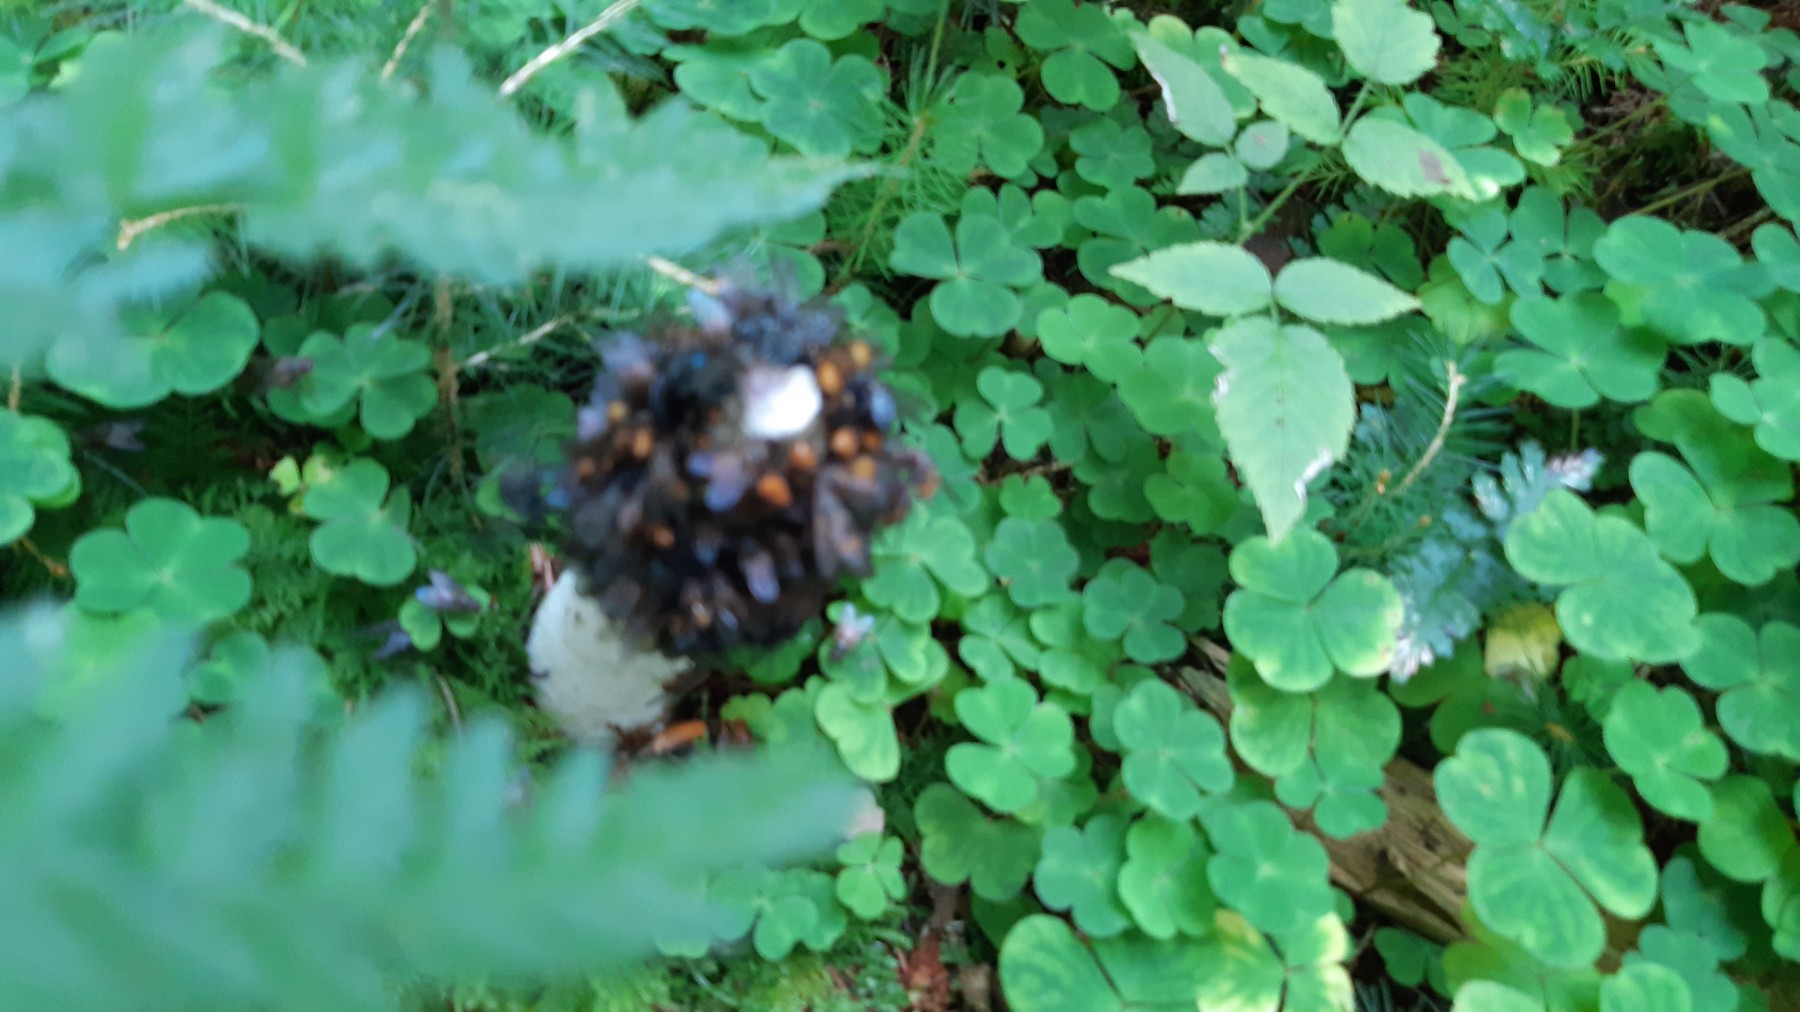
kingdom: Fungi
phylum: Basidiomycota
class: Agaricomycetes
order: Phallales
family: Phallaceae
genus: Phallus
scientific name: Phallus impudicus
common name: almindelig stinksvamp
